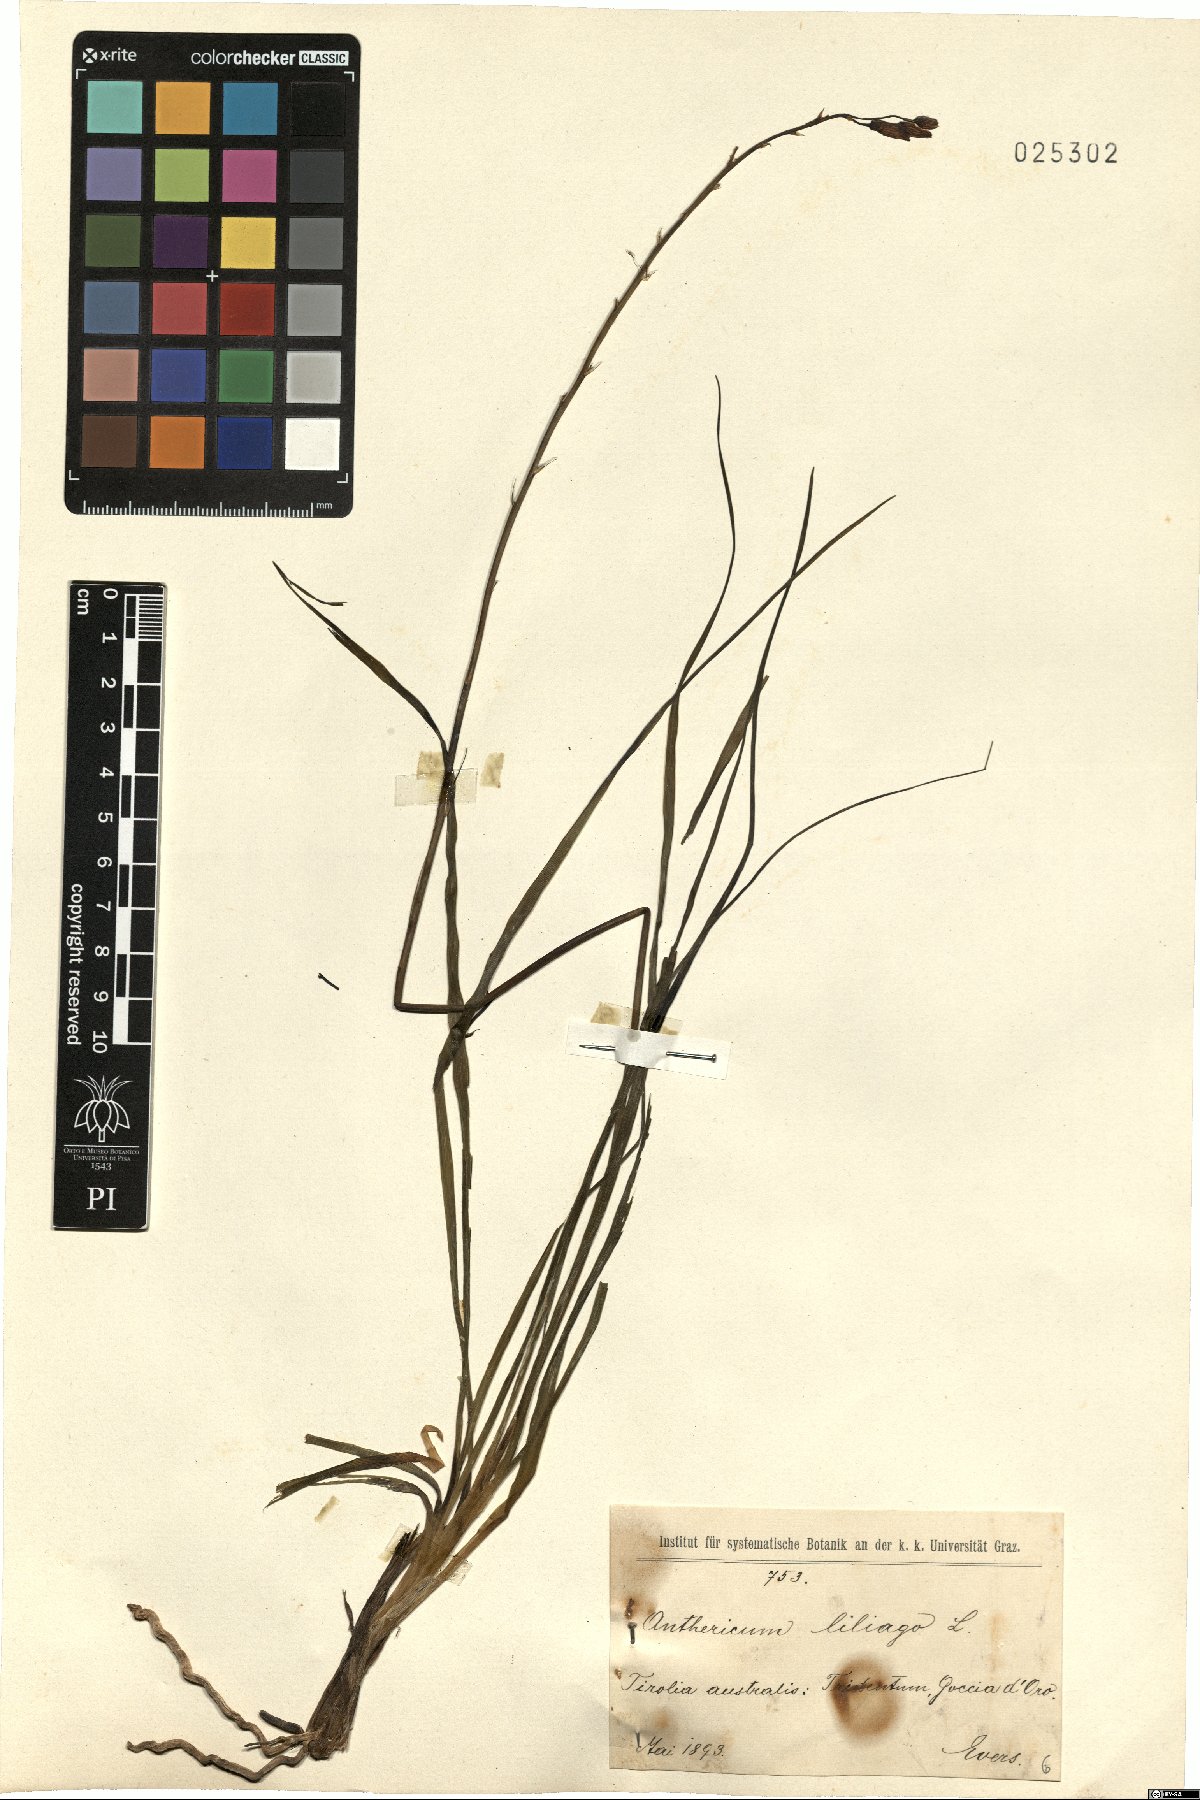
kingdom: Plantae
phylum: Tracheophyta
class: Liliopsida
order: Asparagales
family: Asparagaceae
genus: Anthericum
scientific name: Anthericum liliago
